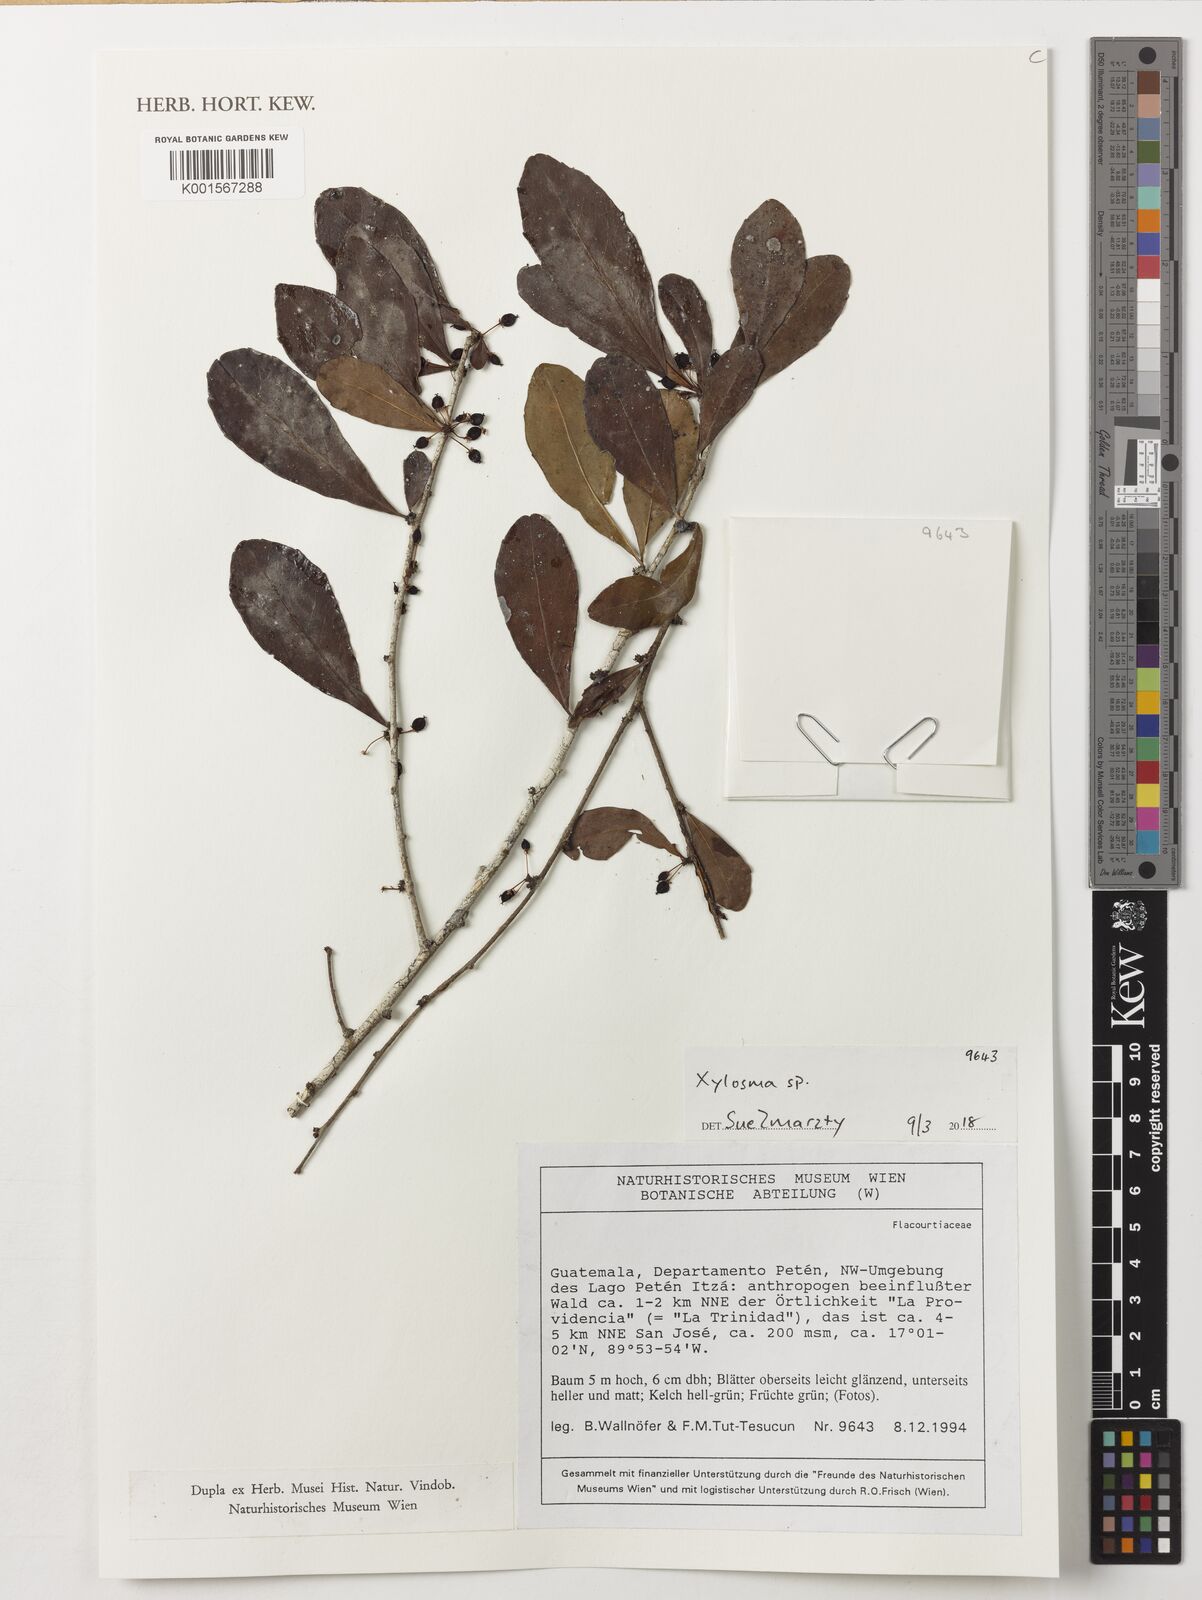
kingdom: Plantae
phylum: Tracheophyta
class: Magnoliopsida
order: Malpighiales
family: Salicaceae
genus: Xylosma
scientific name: Xylosma
